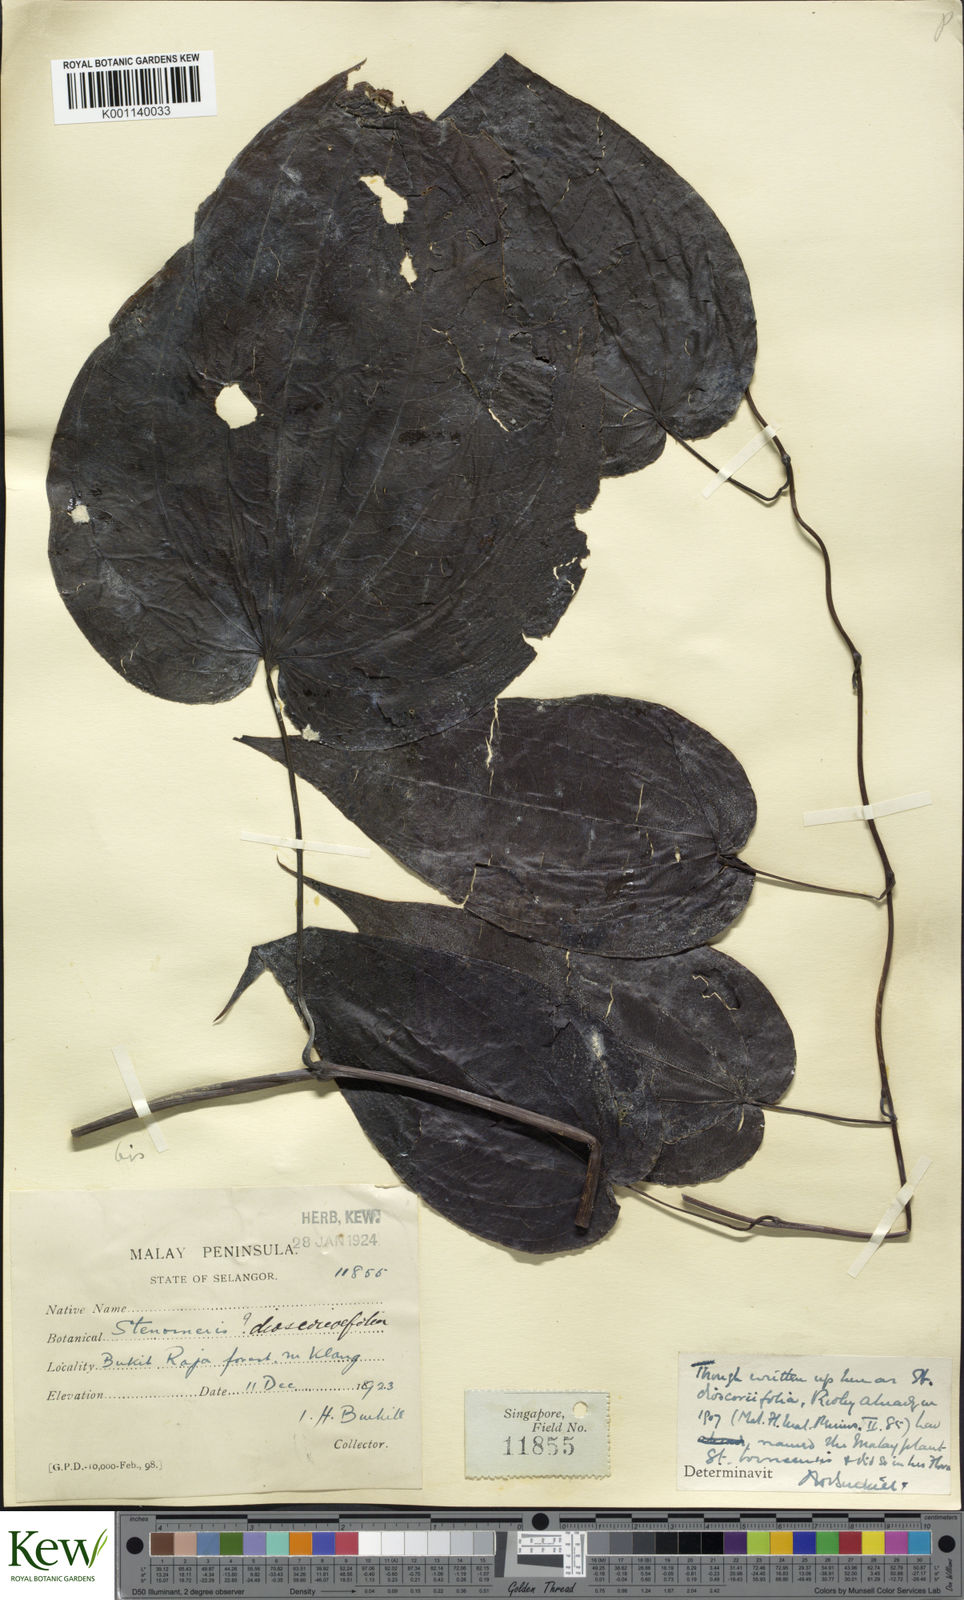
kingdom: Plantae
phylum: Tracheophyta
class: Liliopsida
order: Dioscoreales
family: Dioscoreaceae
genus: Stenomeris
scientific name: Stenomeris borneensis
